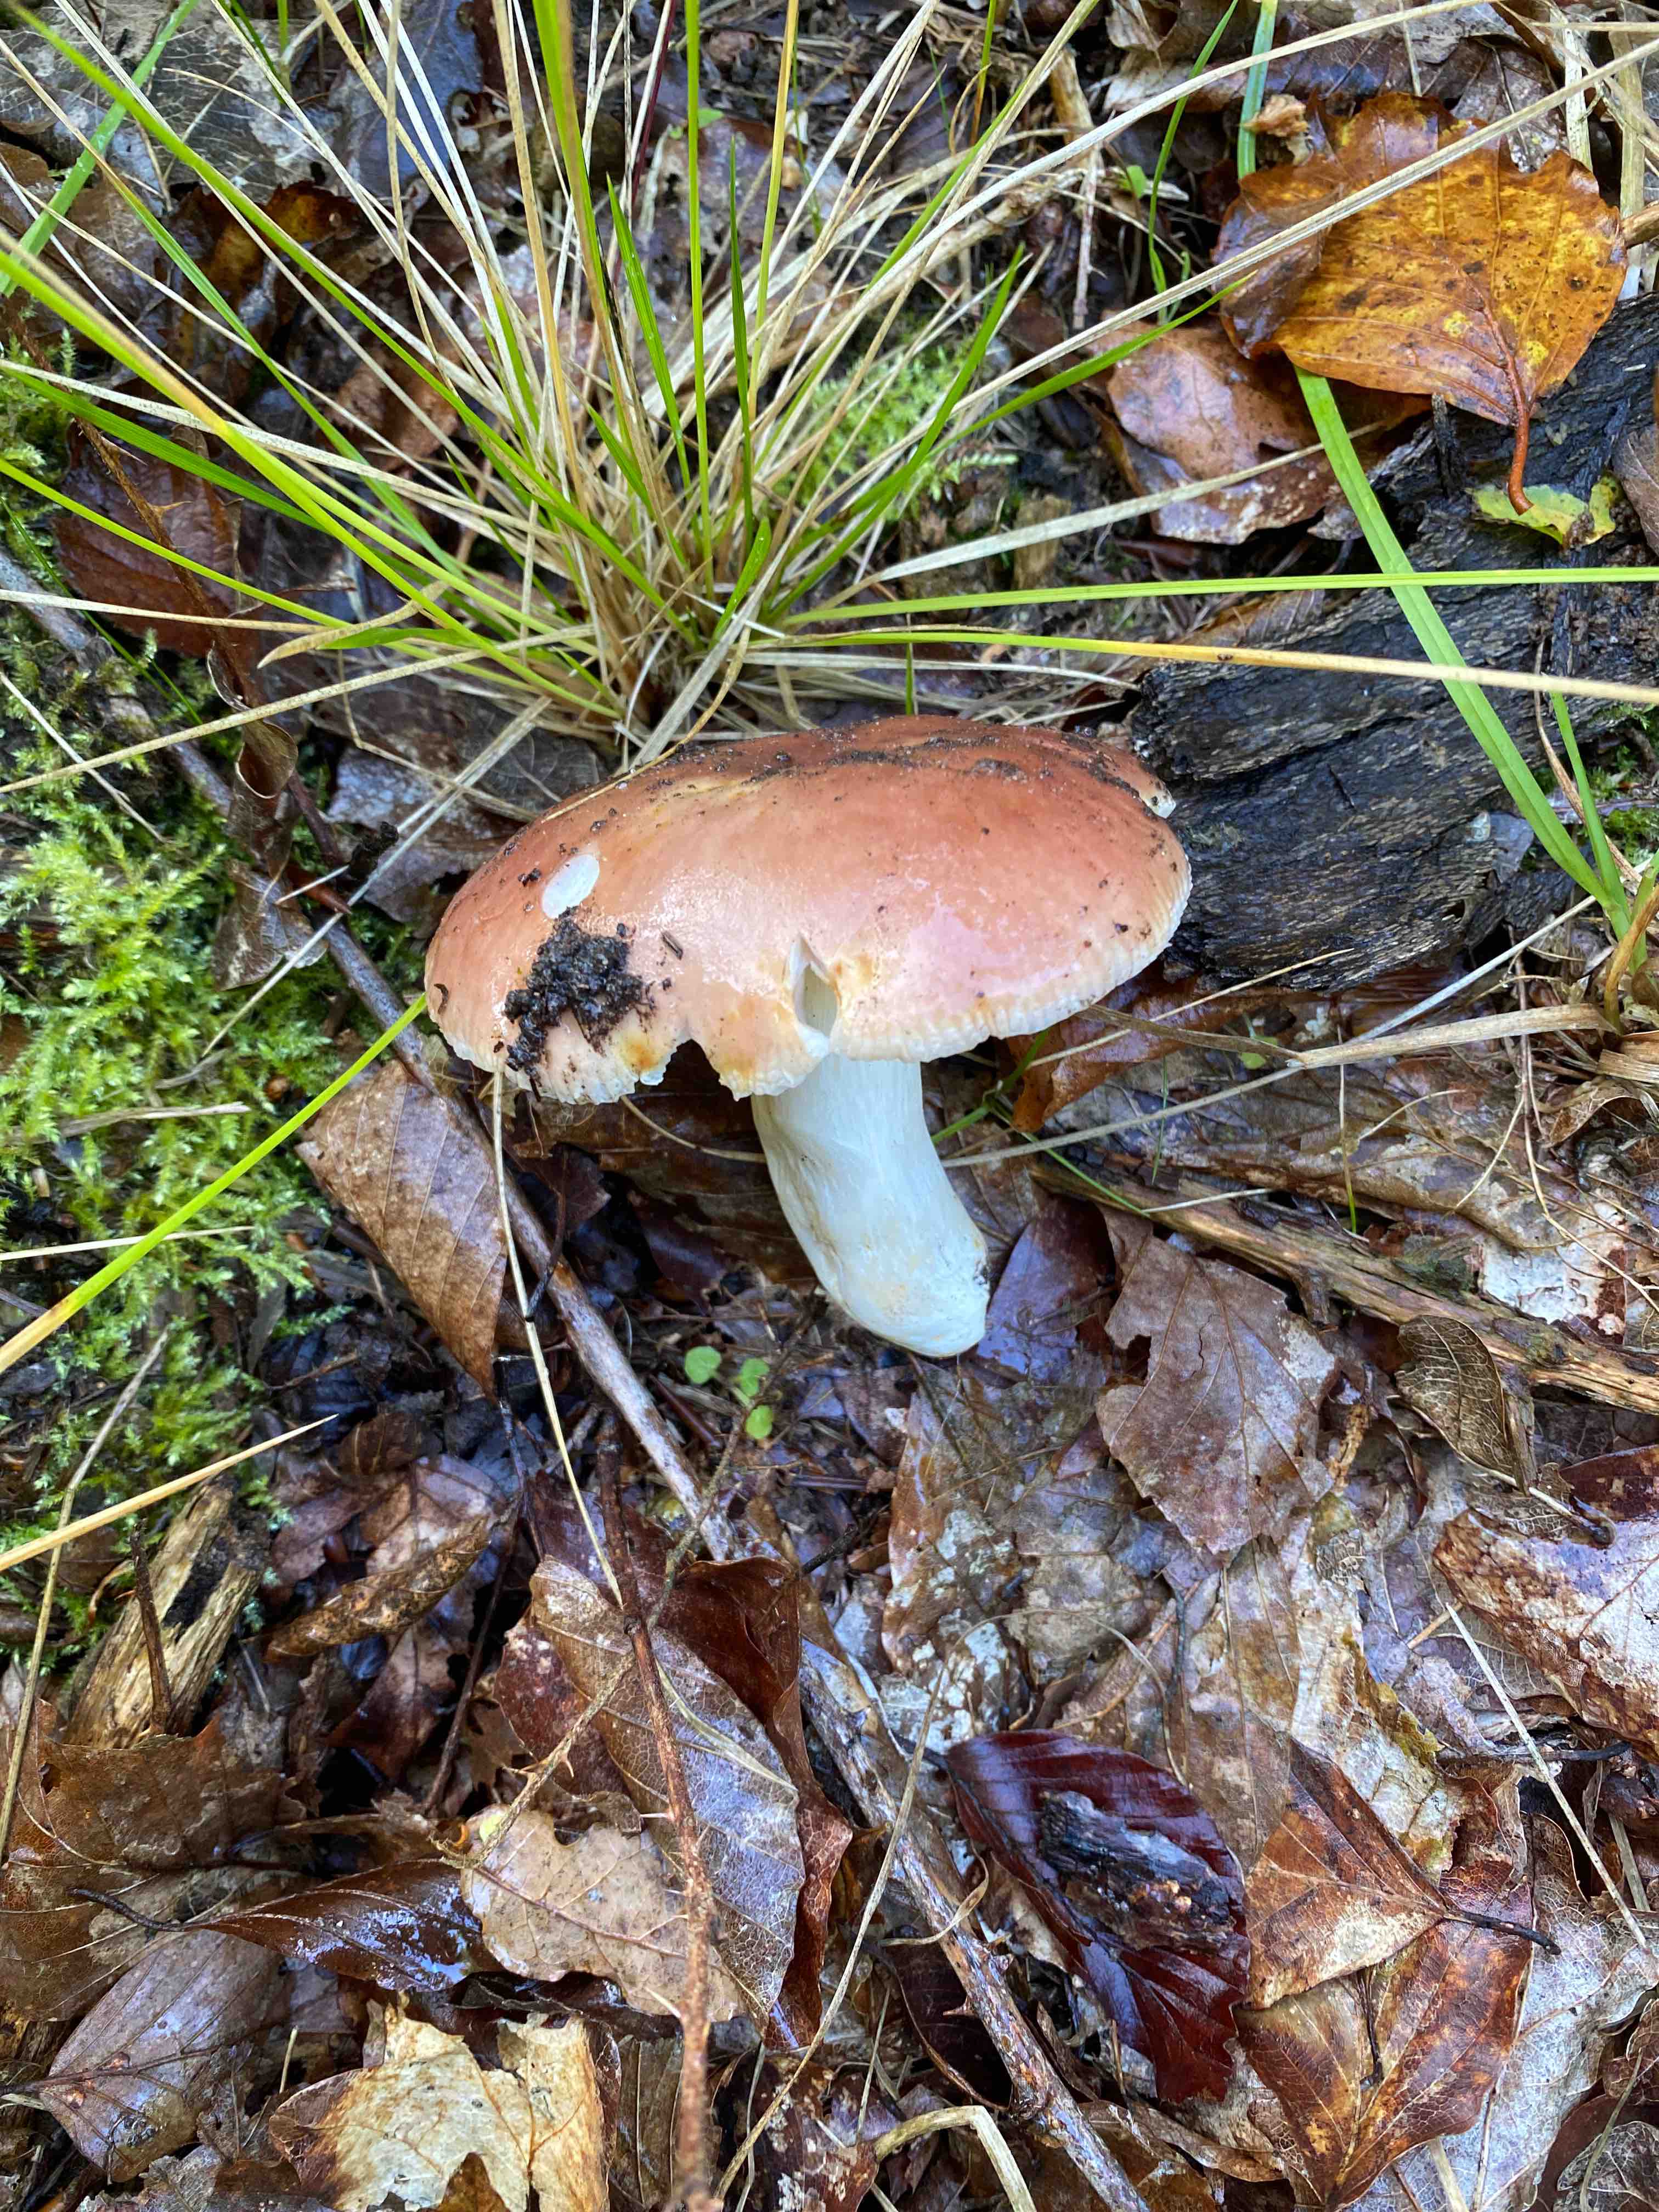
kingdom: Fungi
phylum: Basidiomycota
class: Agaricomycetes
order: Russulales
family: Russulaceae
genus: Russula
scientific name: Russula vesca
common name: spiselig skørhat
